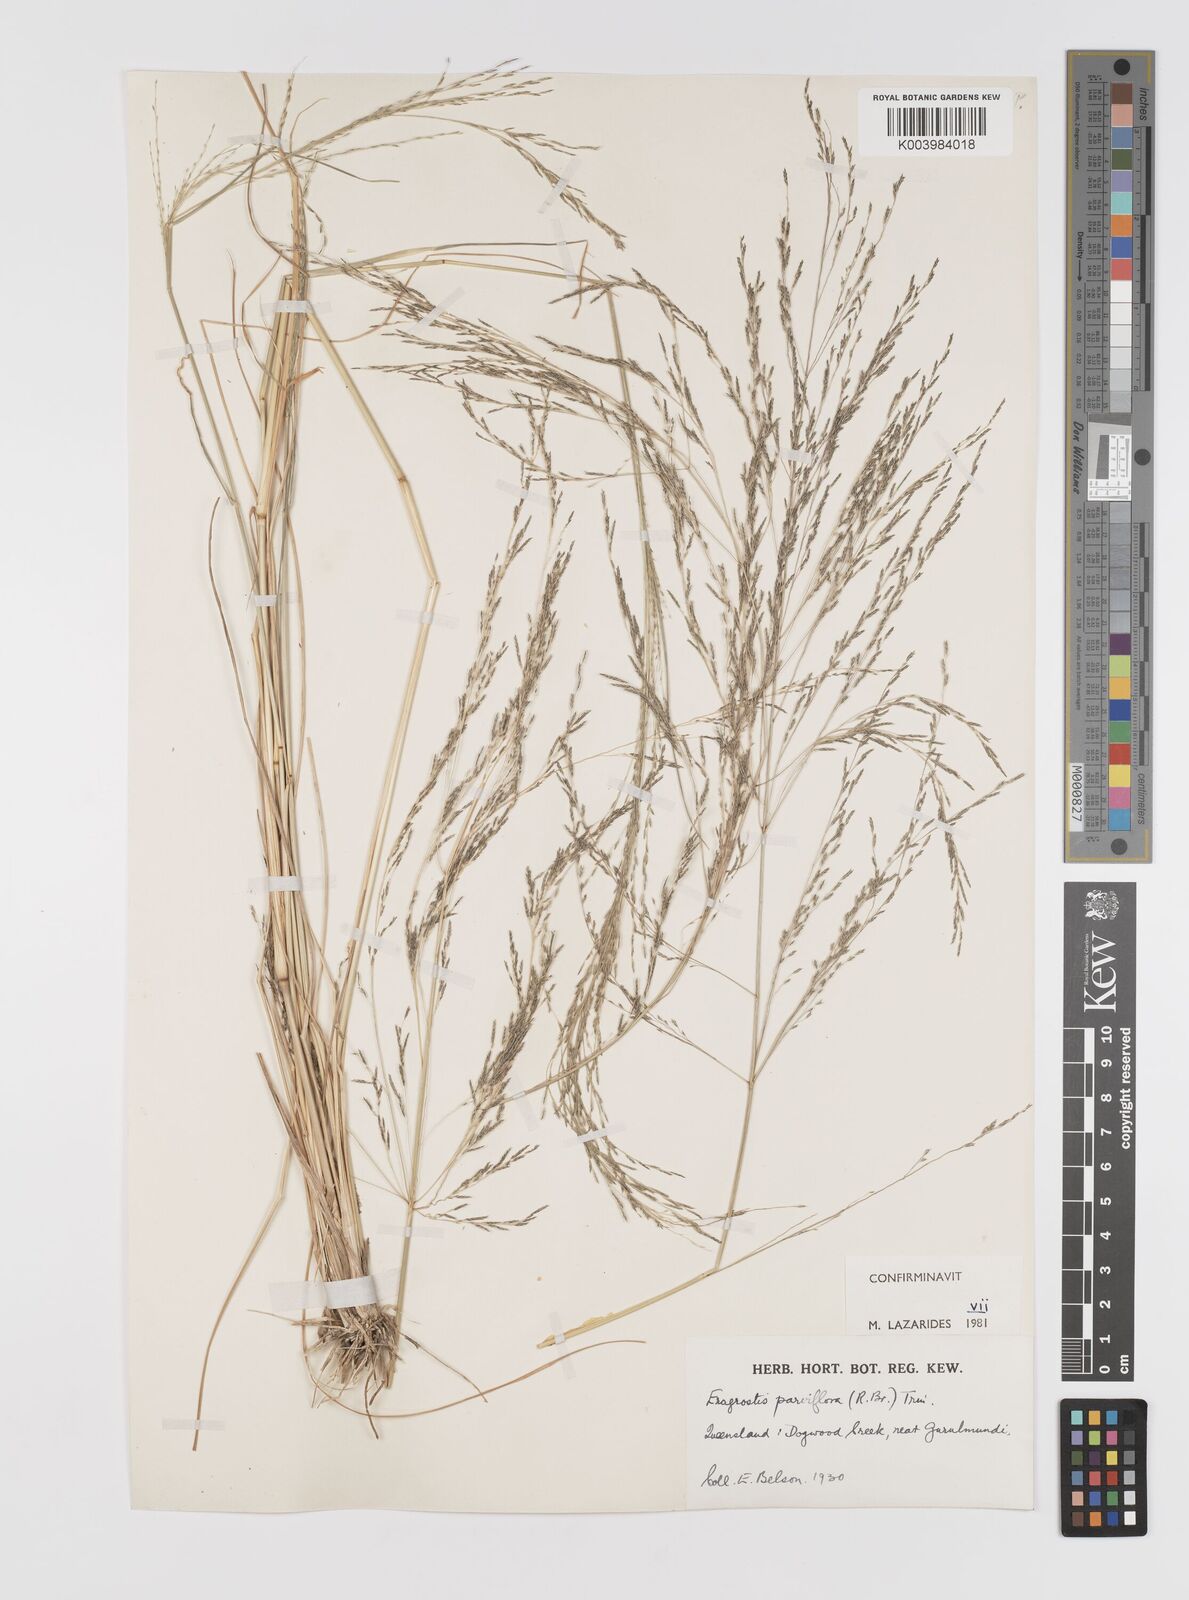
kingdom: Plantae
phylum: Tracheophyta
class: Liliopsida
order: Poales
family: Poaceae
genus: Eragrostis
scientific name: Eragrostis parviflora
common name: Weeping love-grass
